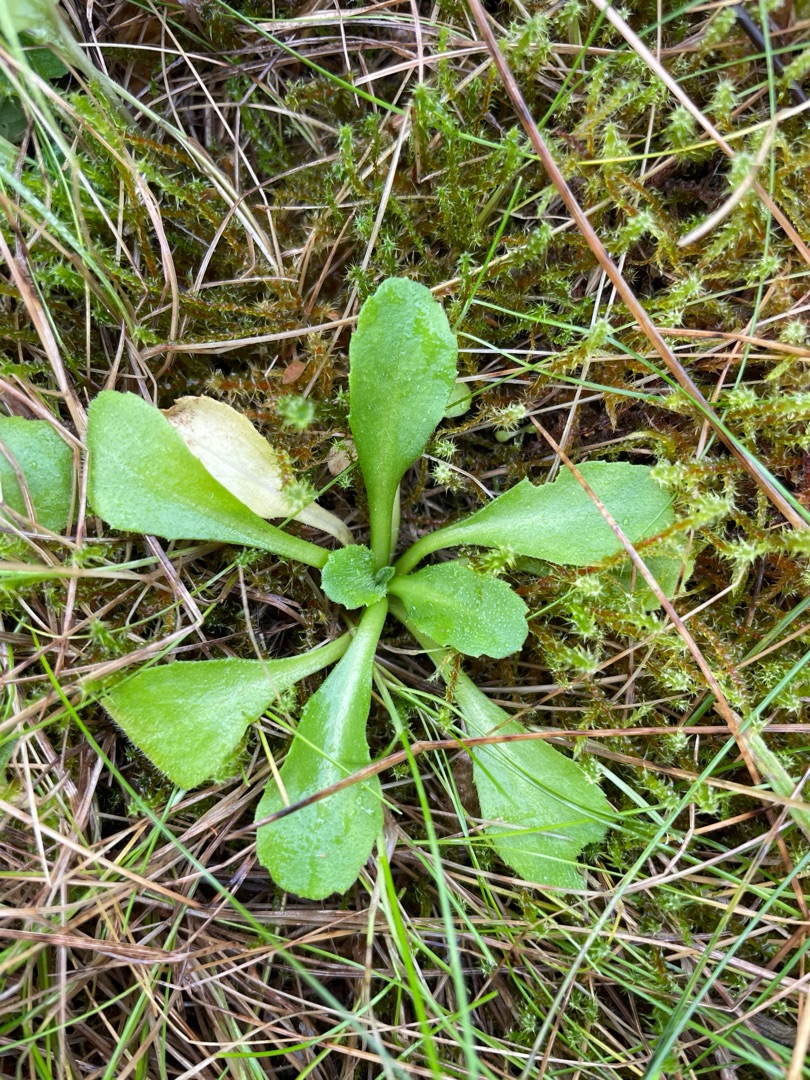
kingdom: Plantae
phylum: Tracheophyta
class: Magnoliopsida
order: Asterales
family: Asteraceae
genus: Bellis
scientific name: Bellis perennis
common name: Tusindfryd
